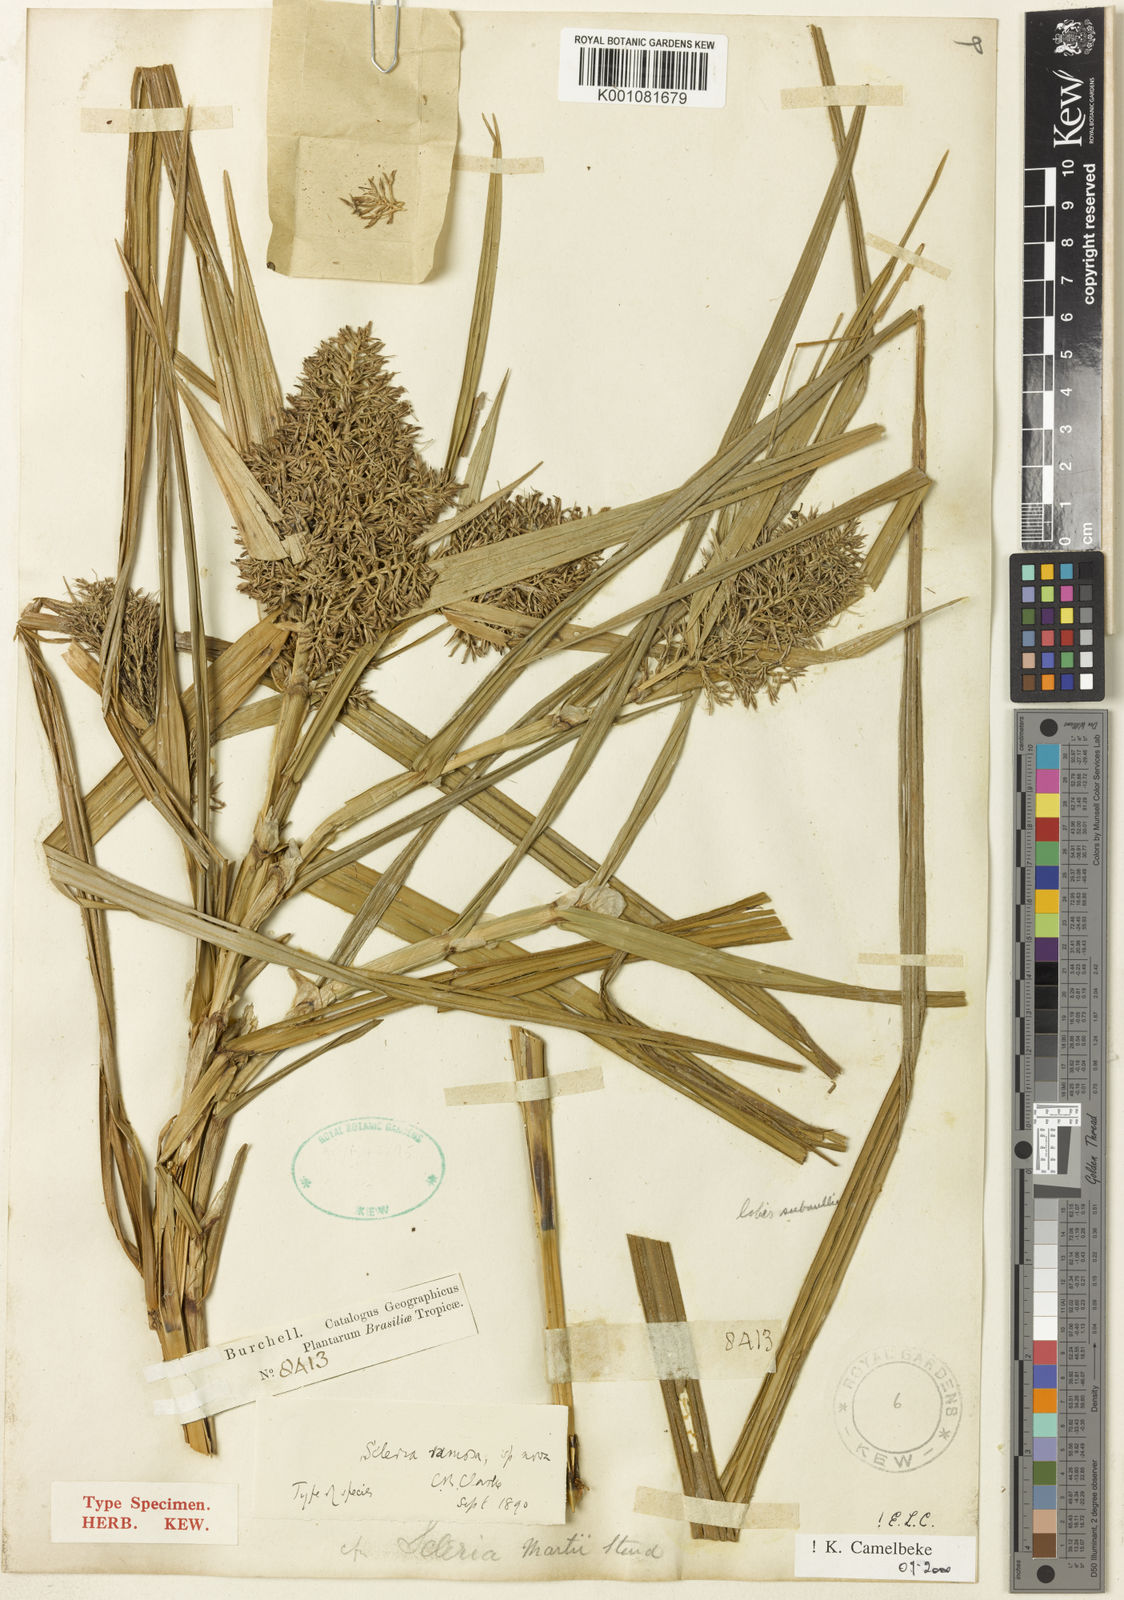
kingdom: Plantae
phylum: Tracheophyta
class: Liliopsida
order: Poales
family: Cyperaceae
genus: Scleria
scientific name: Scleria ramosa
